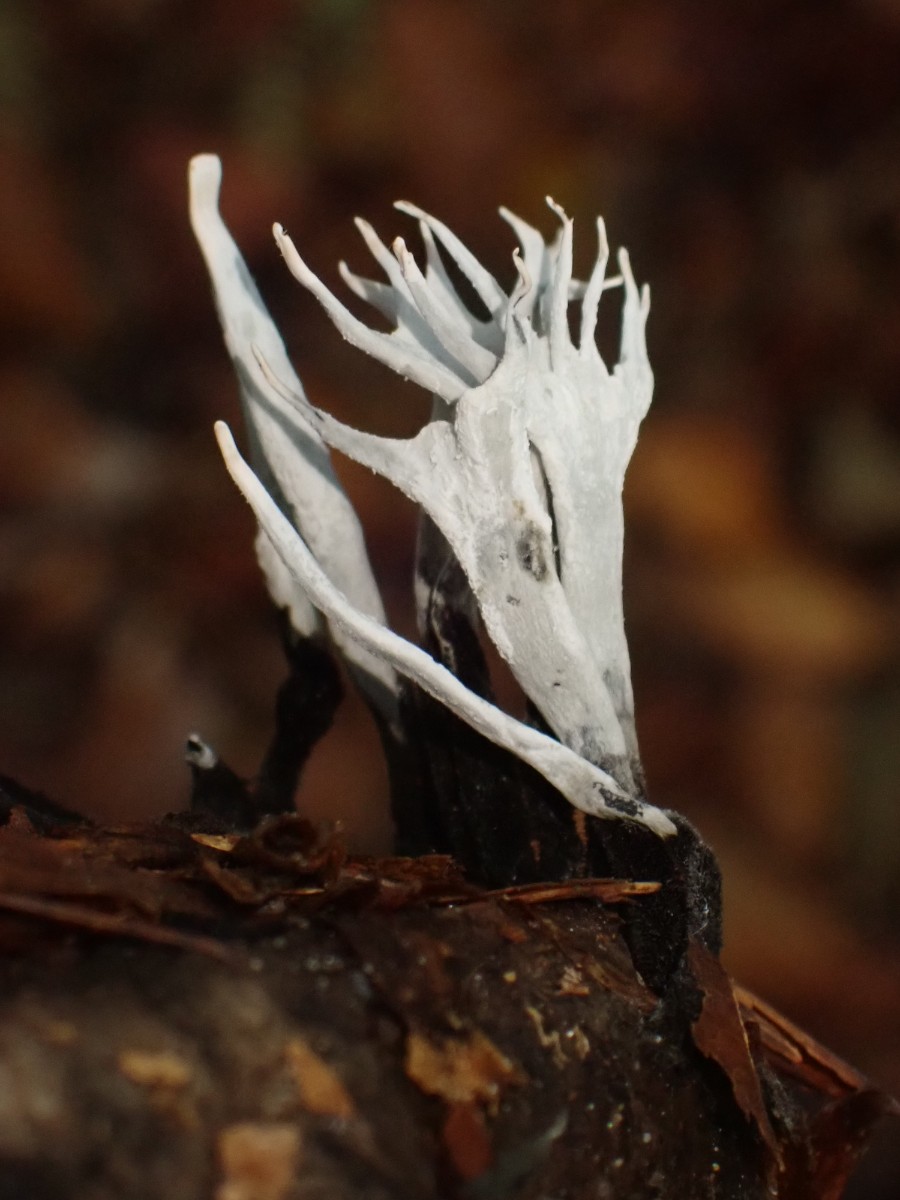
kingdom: Fungi
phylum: Ascomycota
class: Sordariomycetes
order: Xylariales
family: Xylariaceae
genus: Xylaria
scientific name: Xylaria hypoxylon
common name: grenet stødsvamp
